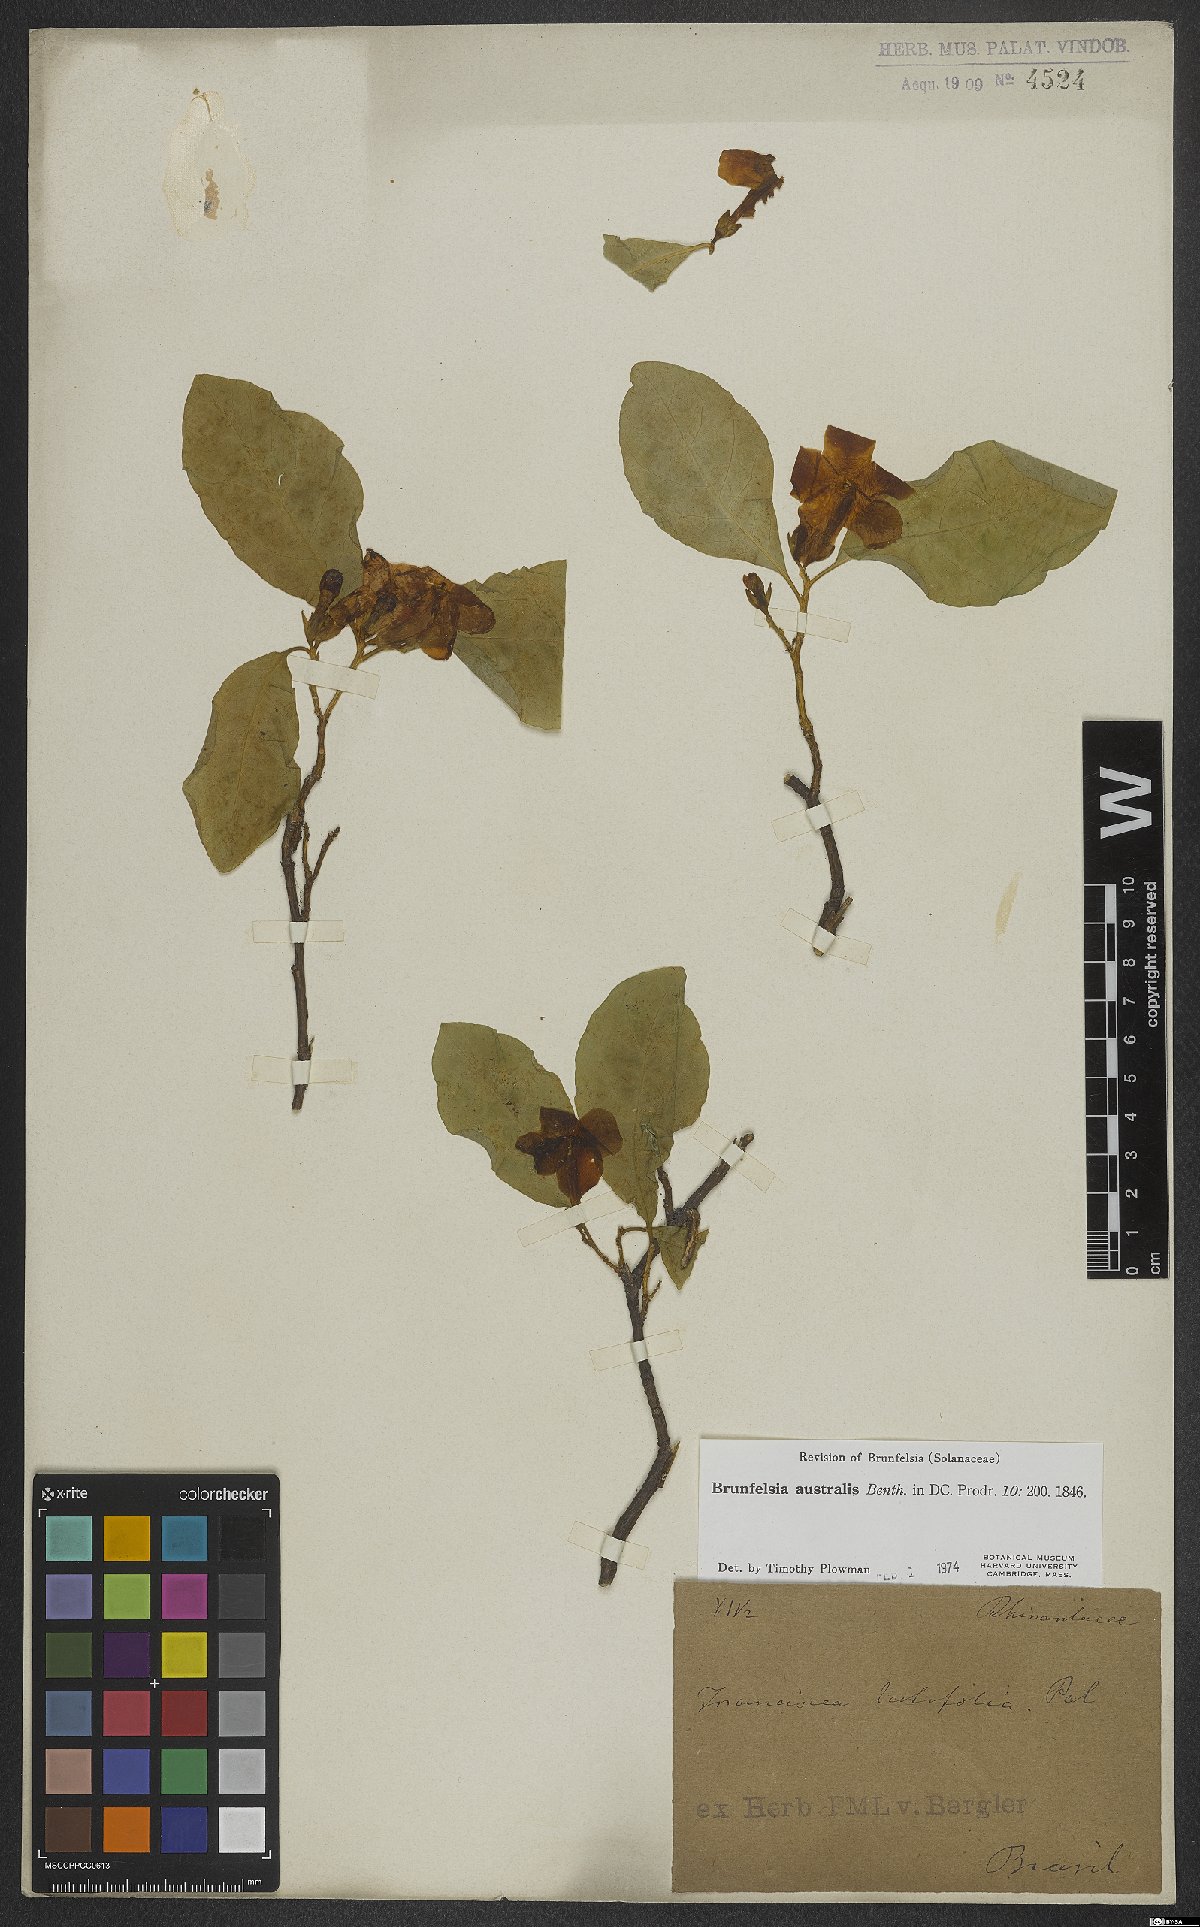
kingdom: Plantae
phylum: Tracheophyta
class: Magnoliopsida
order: Solanales
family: Solanaceae
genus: Brunfelsia
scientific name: Brunfelsia australis
